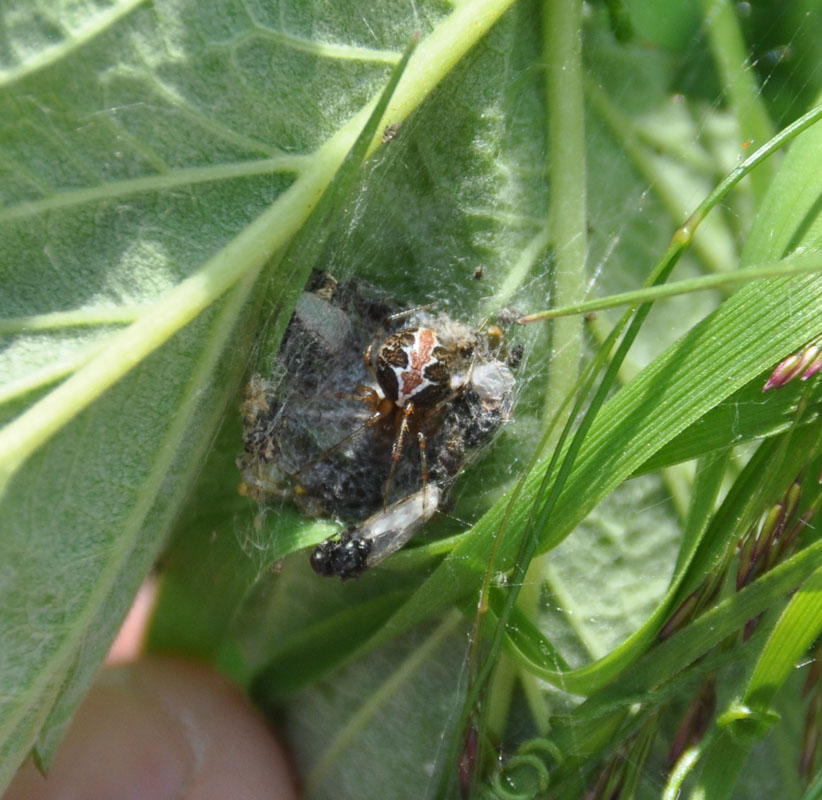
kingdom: Animalia
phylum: Arthropoda
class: Arachnida
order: Araneae
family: Theridiidae
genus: Theridion
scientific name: Theridion pictum
